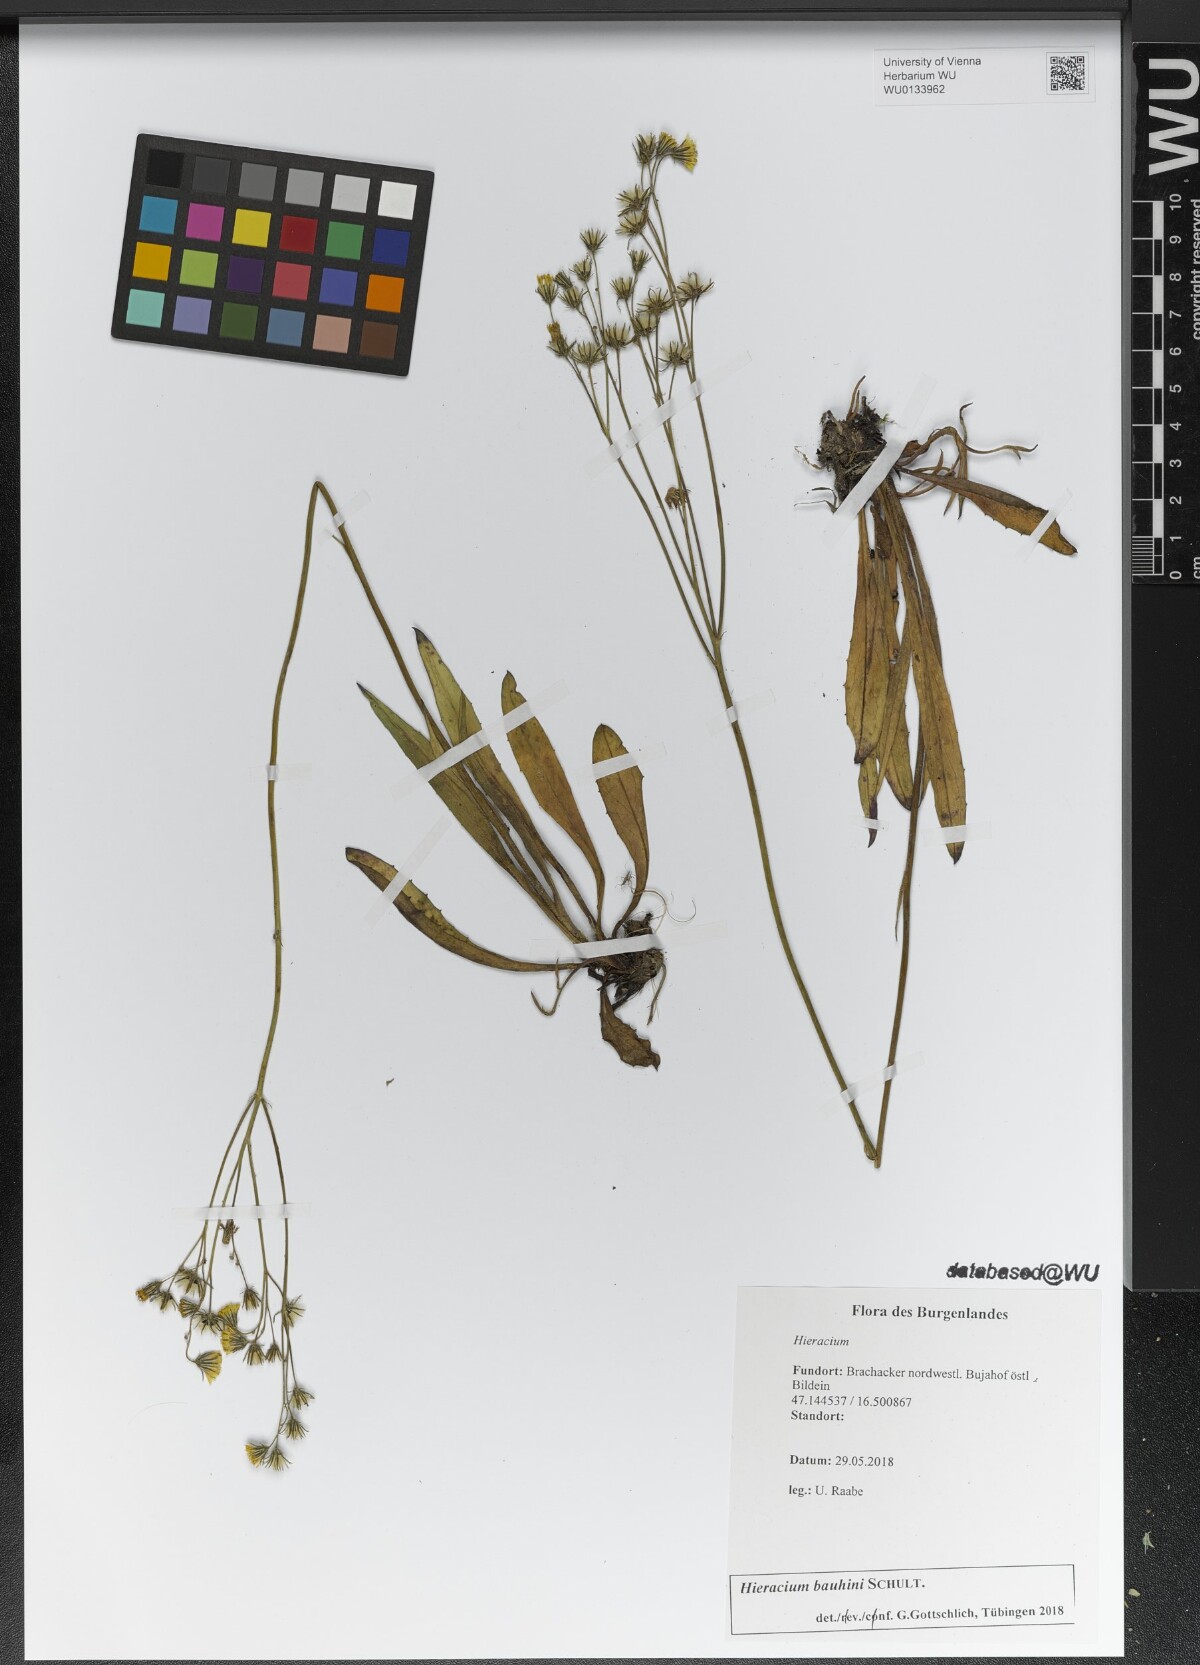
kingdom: Plantae
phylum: Tracheophyta
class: Magnoliopsida
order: Asterales
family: Asteraceae
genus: Pilosella
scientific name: Pilosella bauhini
